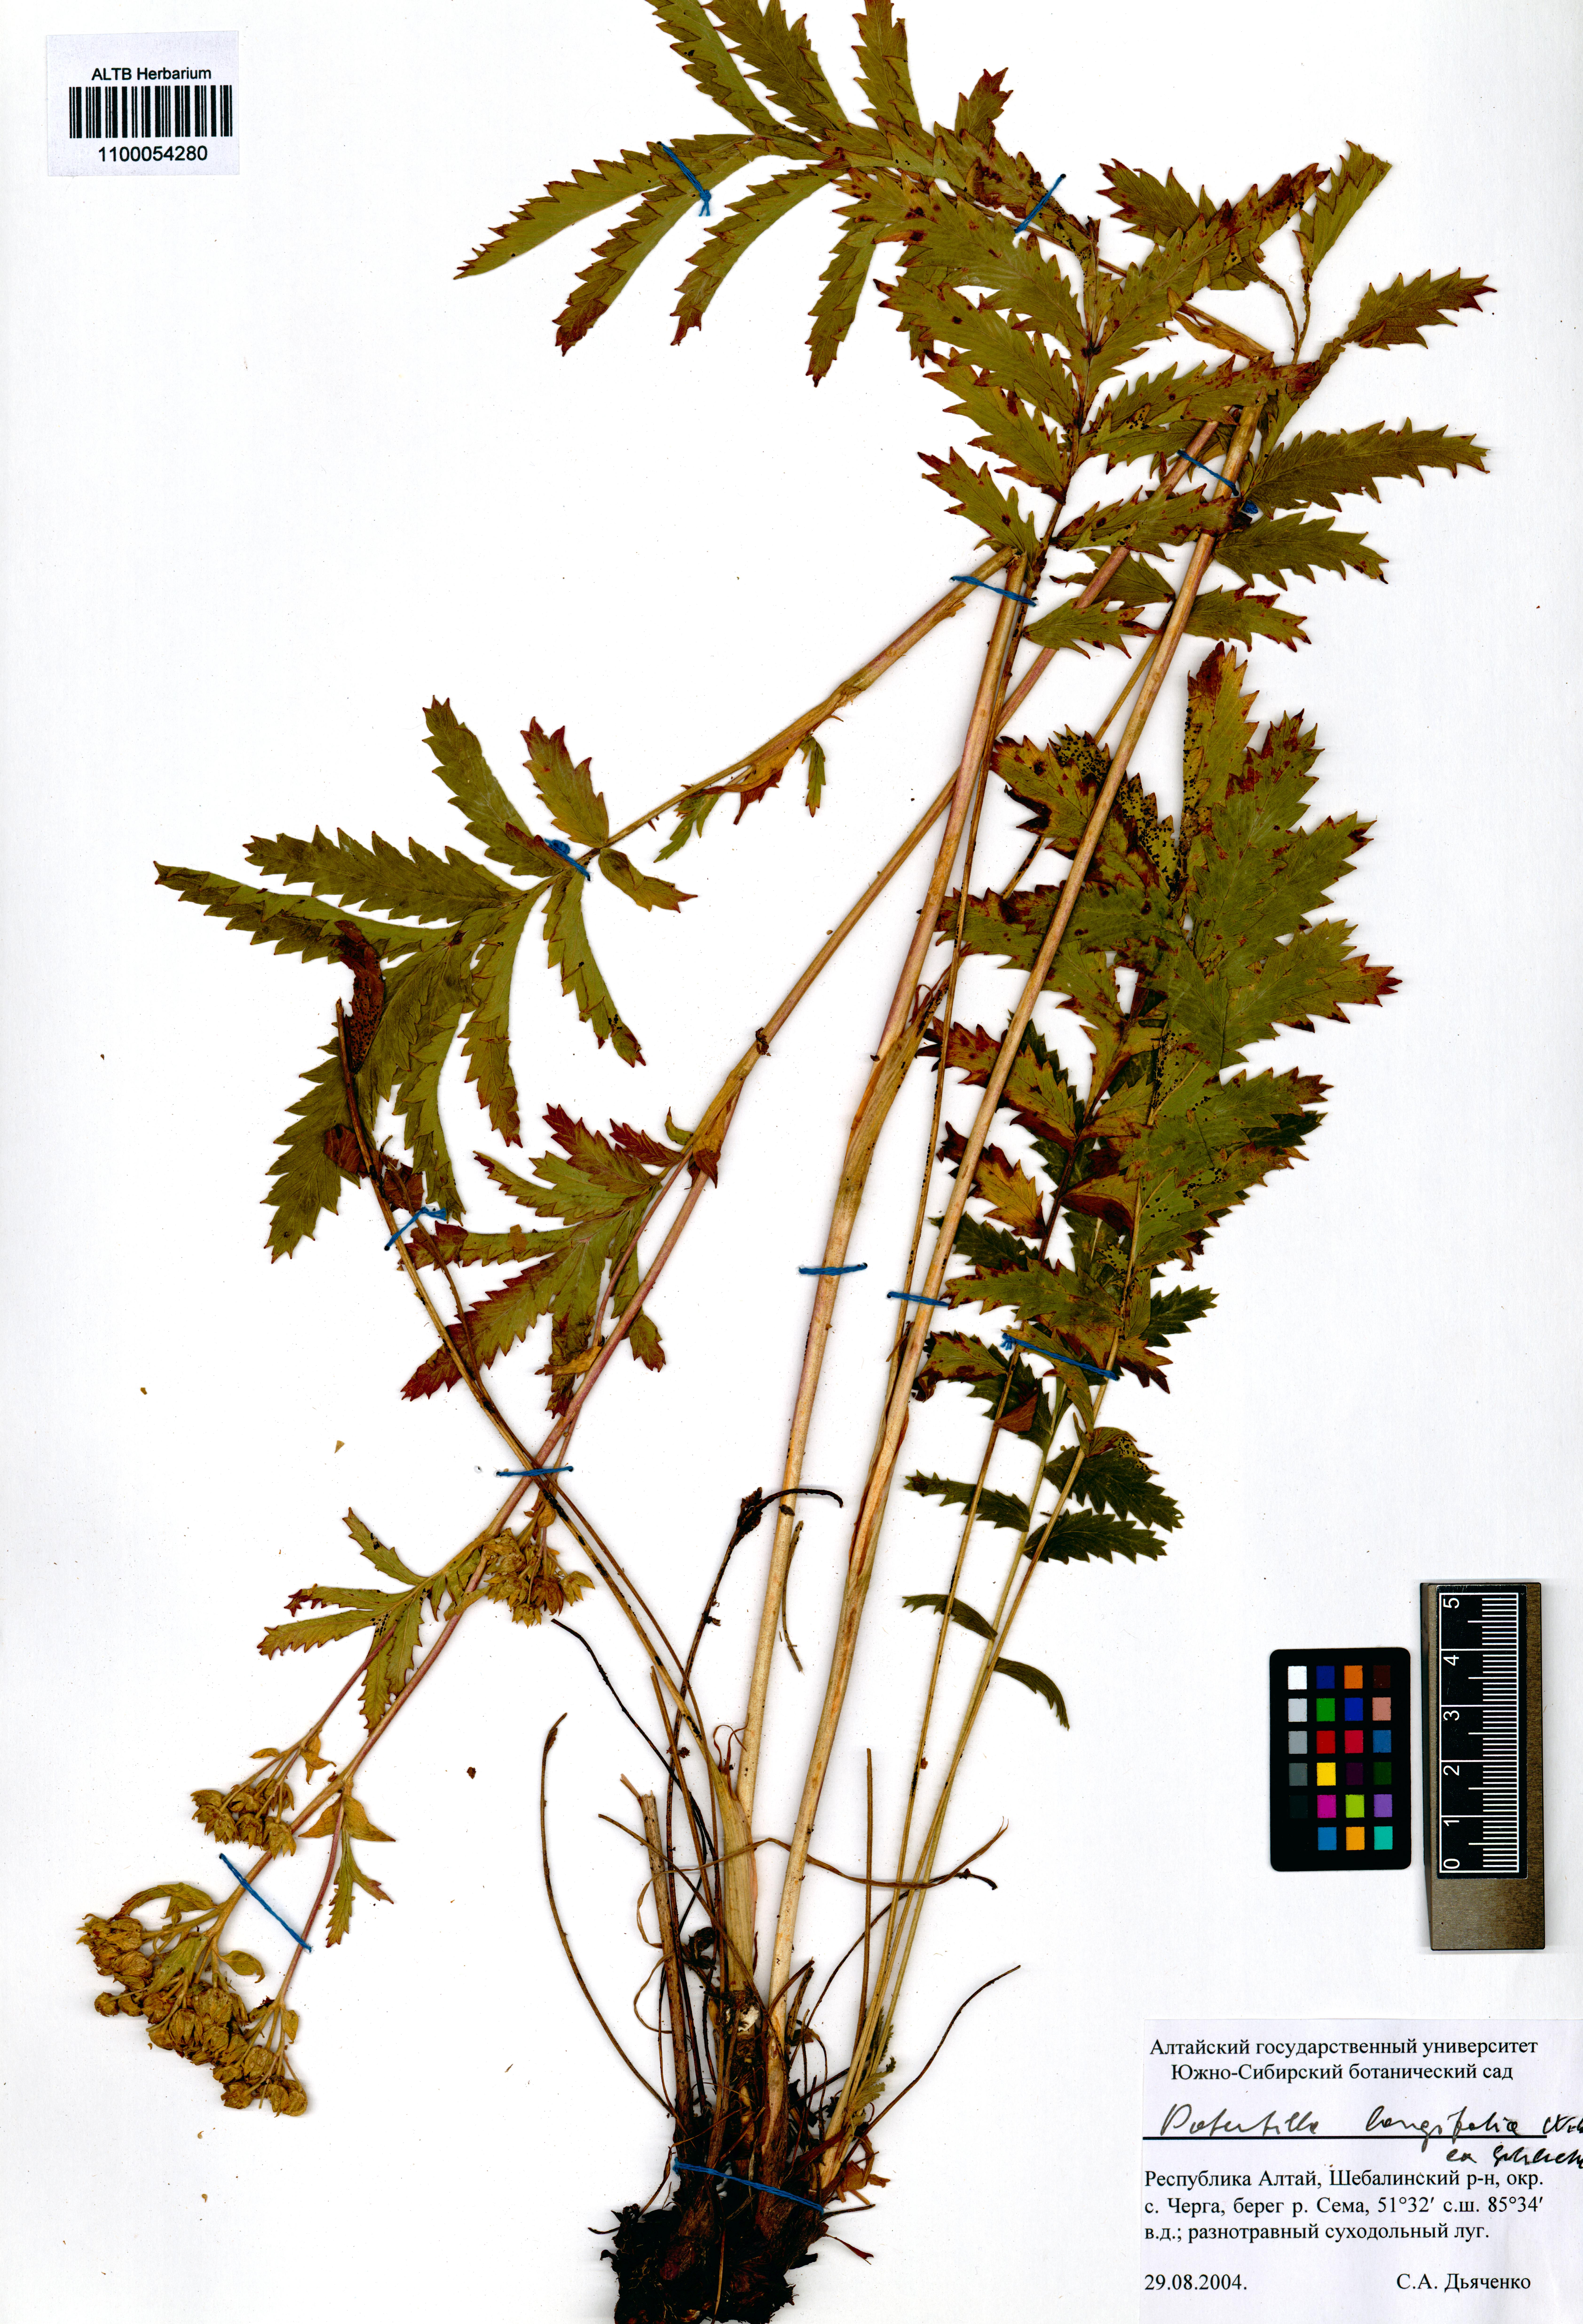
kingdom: Plantae
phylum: Tracheophyta
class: Magnoliopsida
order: Rosales
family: Rosaceae
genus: Potentilla
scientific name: Potentilla longifolia
